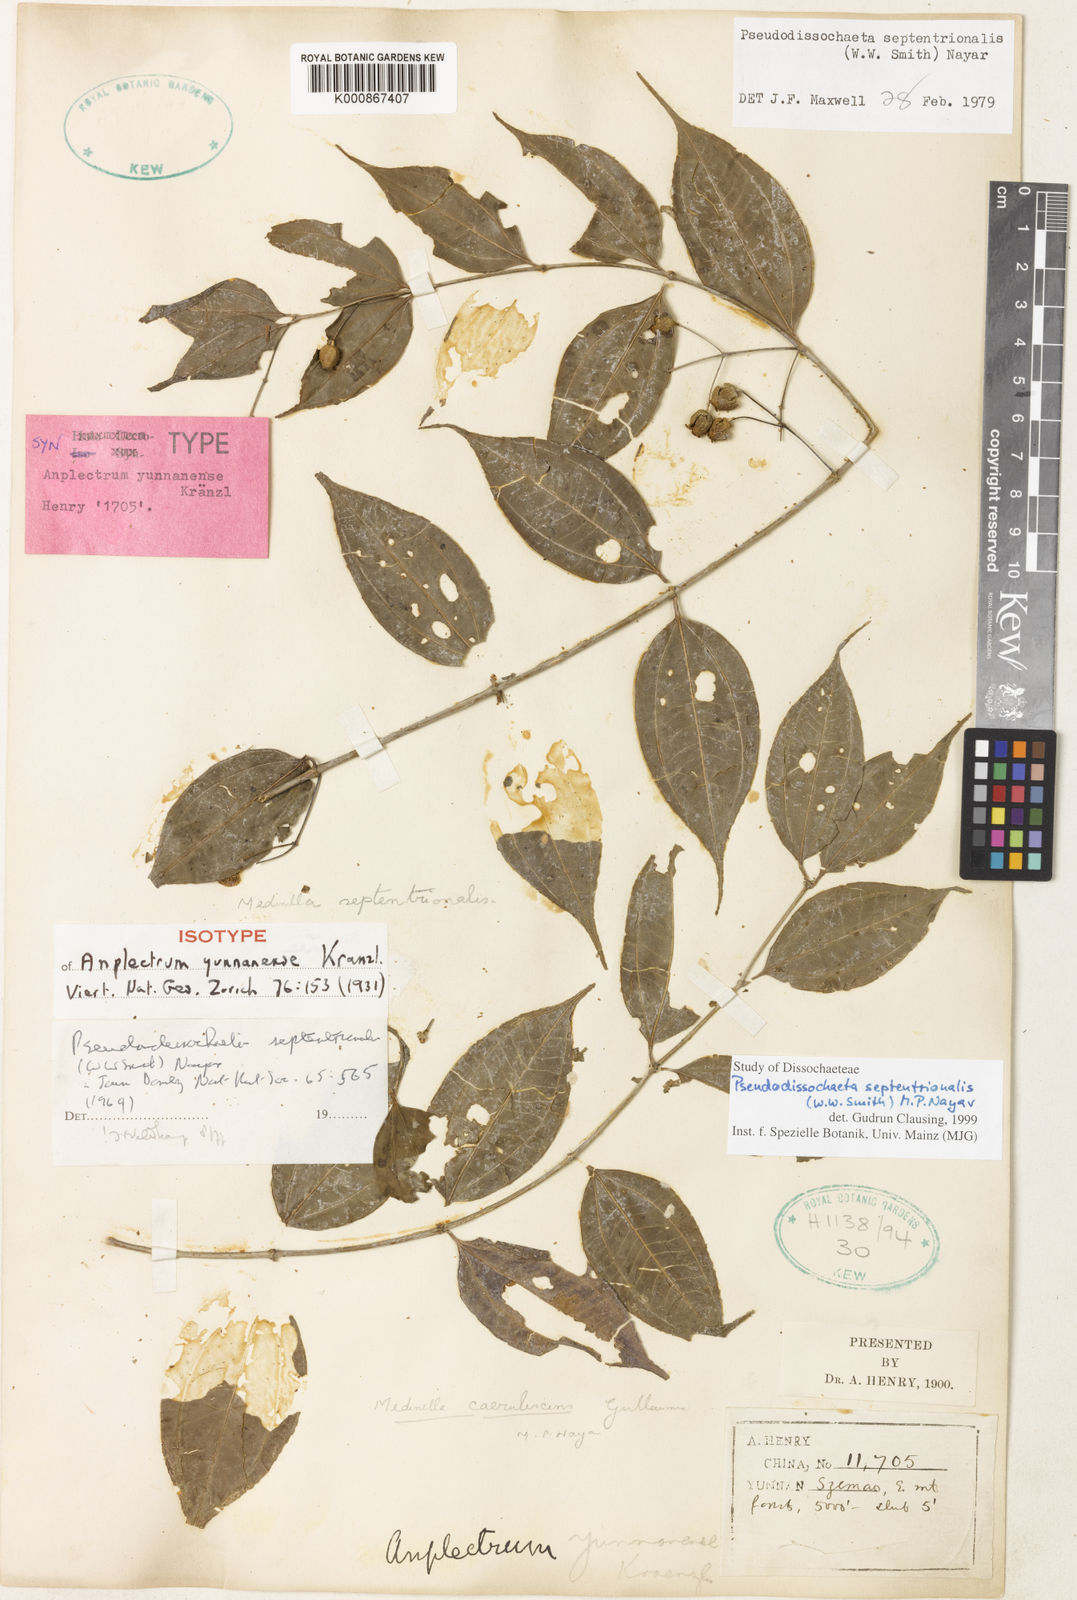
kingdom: Plantae
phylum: Tracheophyta
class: Magnoliopsida
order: Myrtales
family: Melastomataceae
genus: Pseudodissochaeta
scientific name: Pseudodissochaeta septentrionalis
